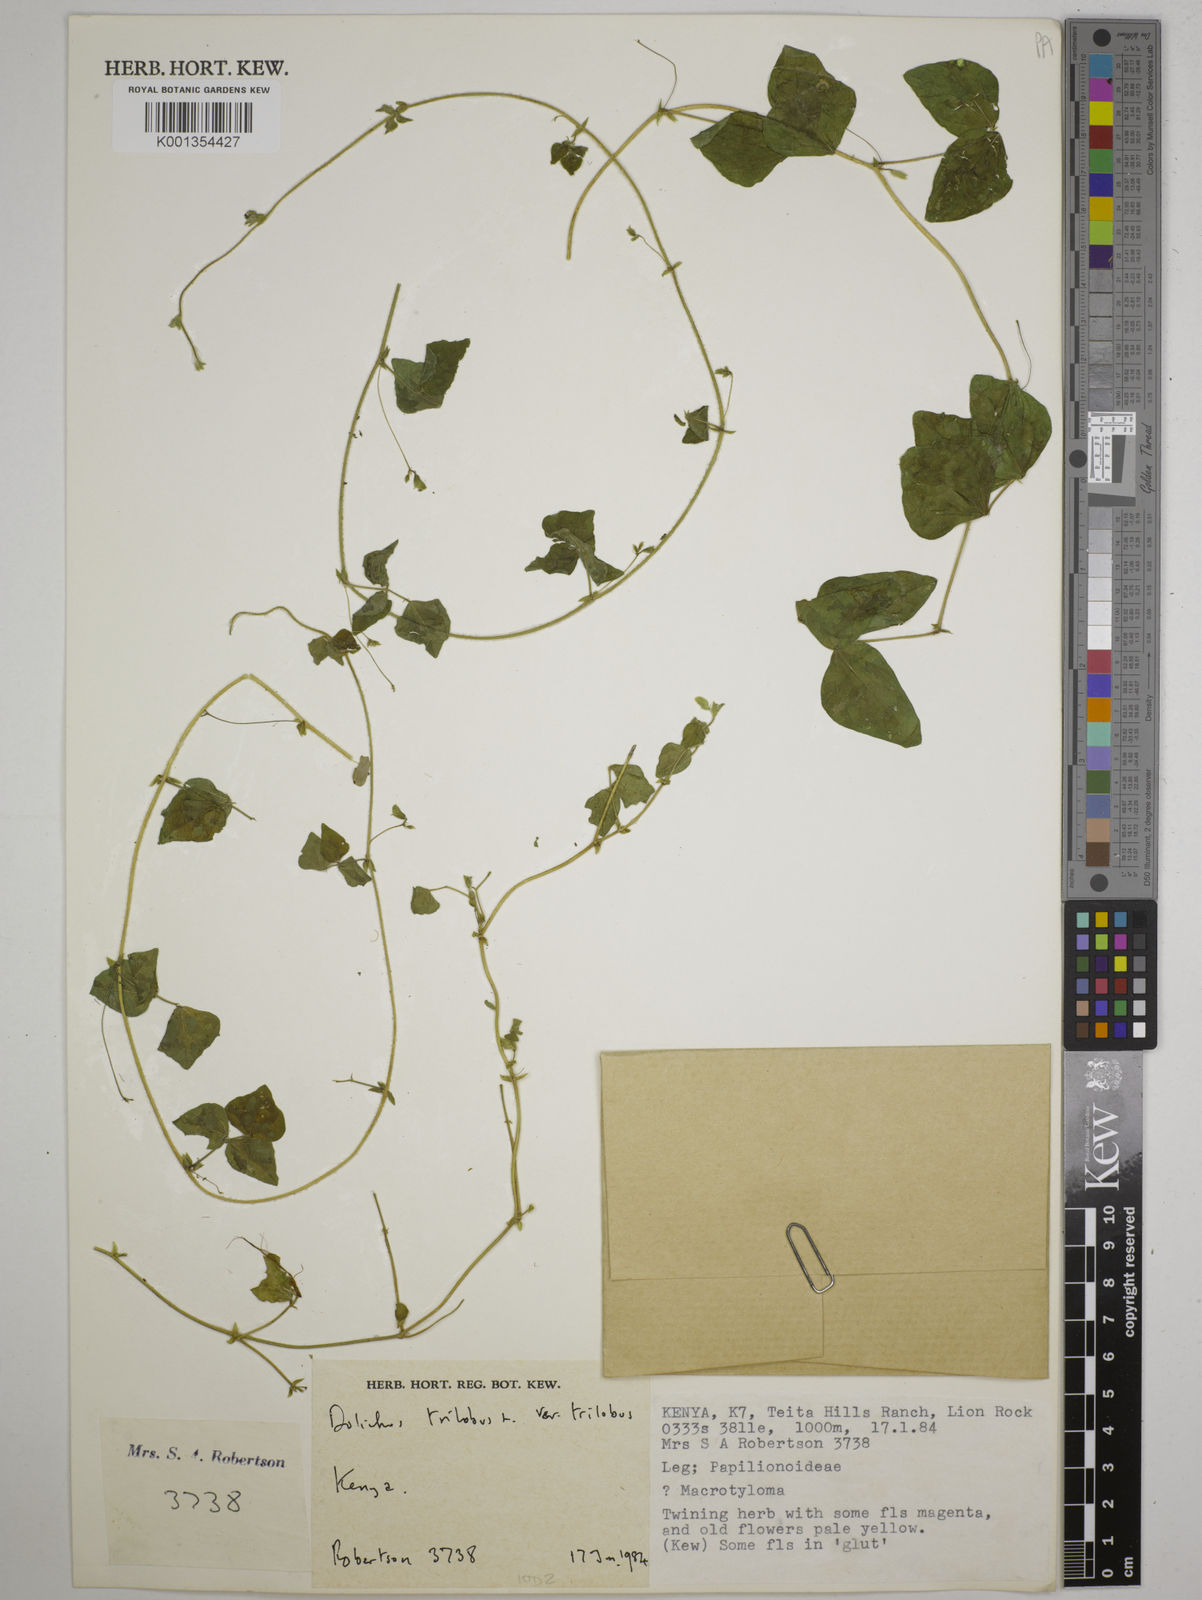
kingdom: Plantae
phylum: Tracheophyta
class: Magnoliopsida
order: Fabales
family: Fabaceae
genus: Dolichos
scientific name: Dolichos
